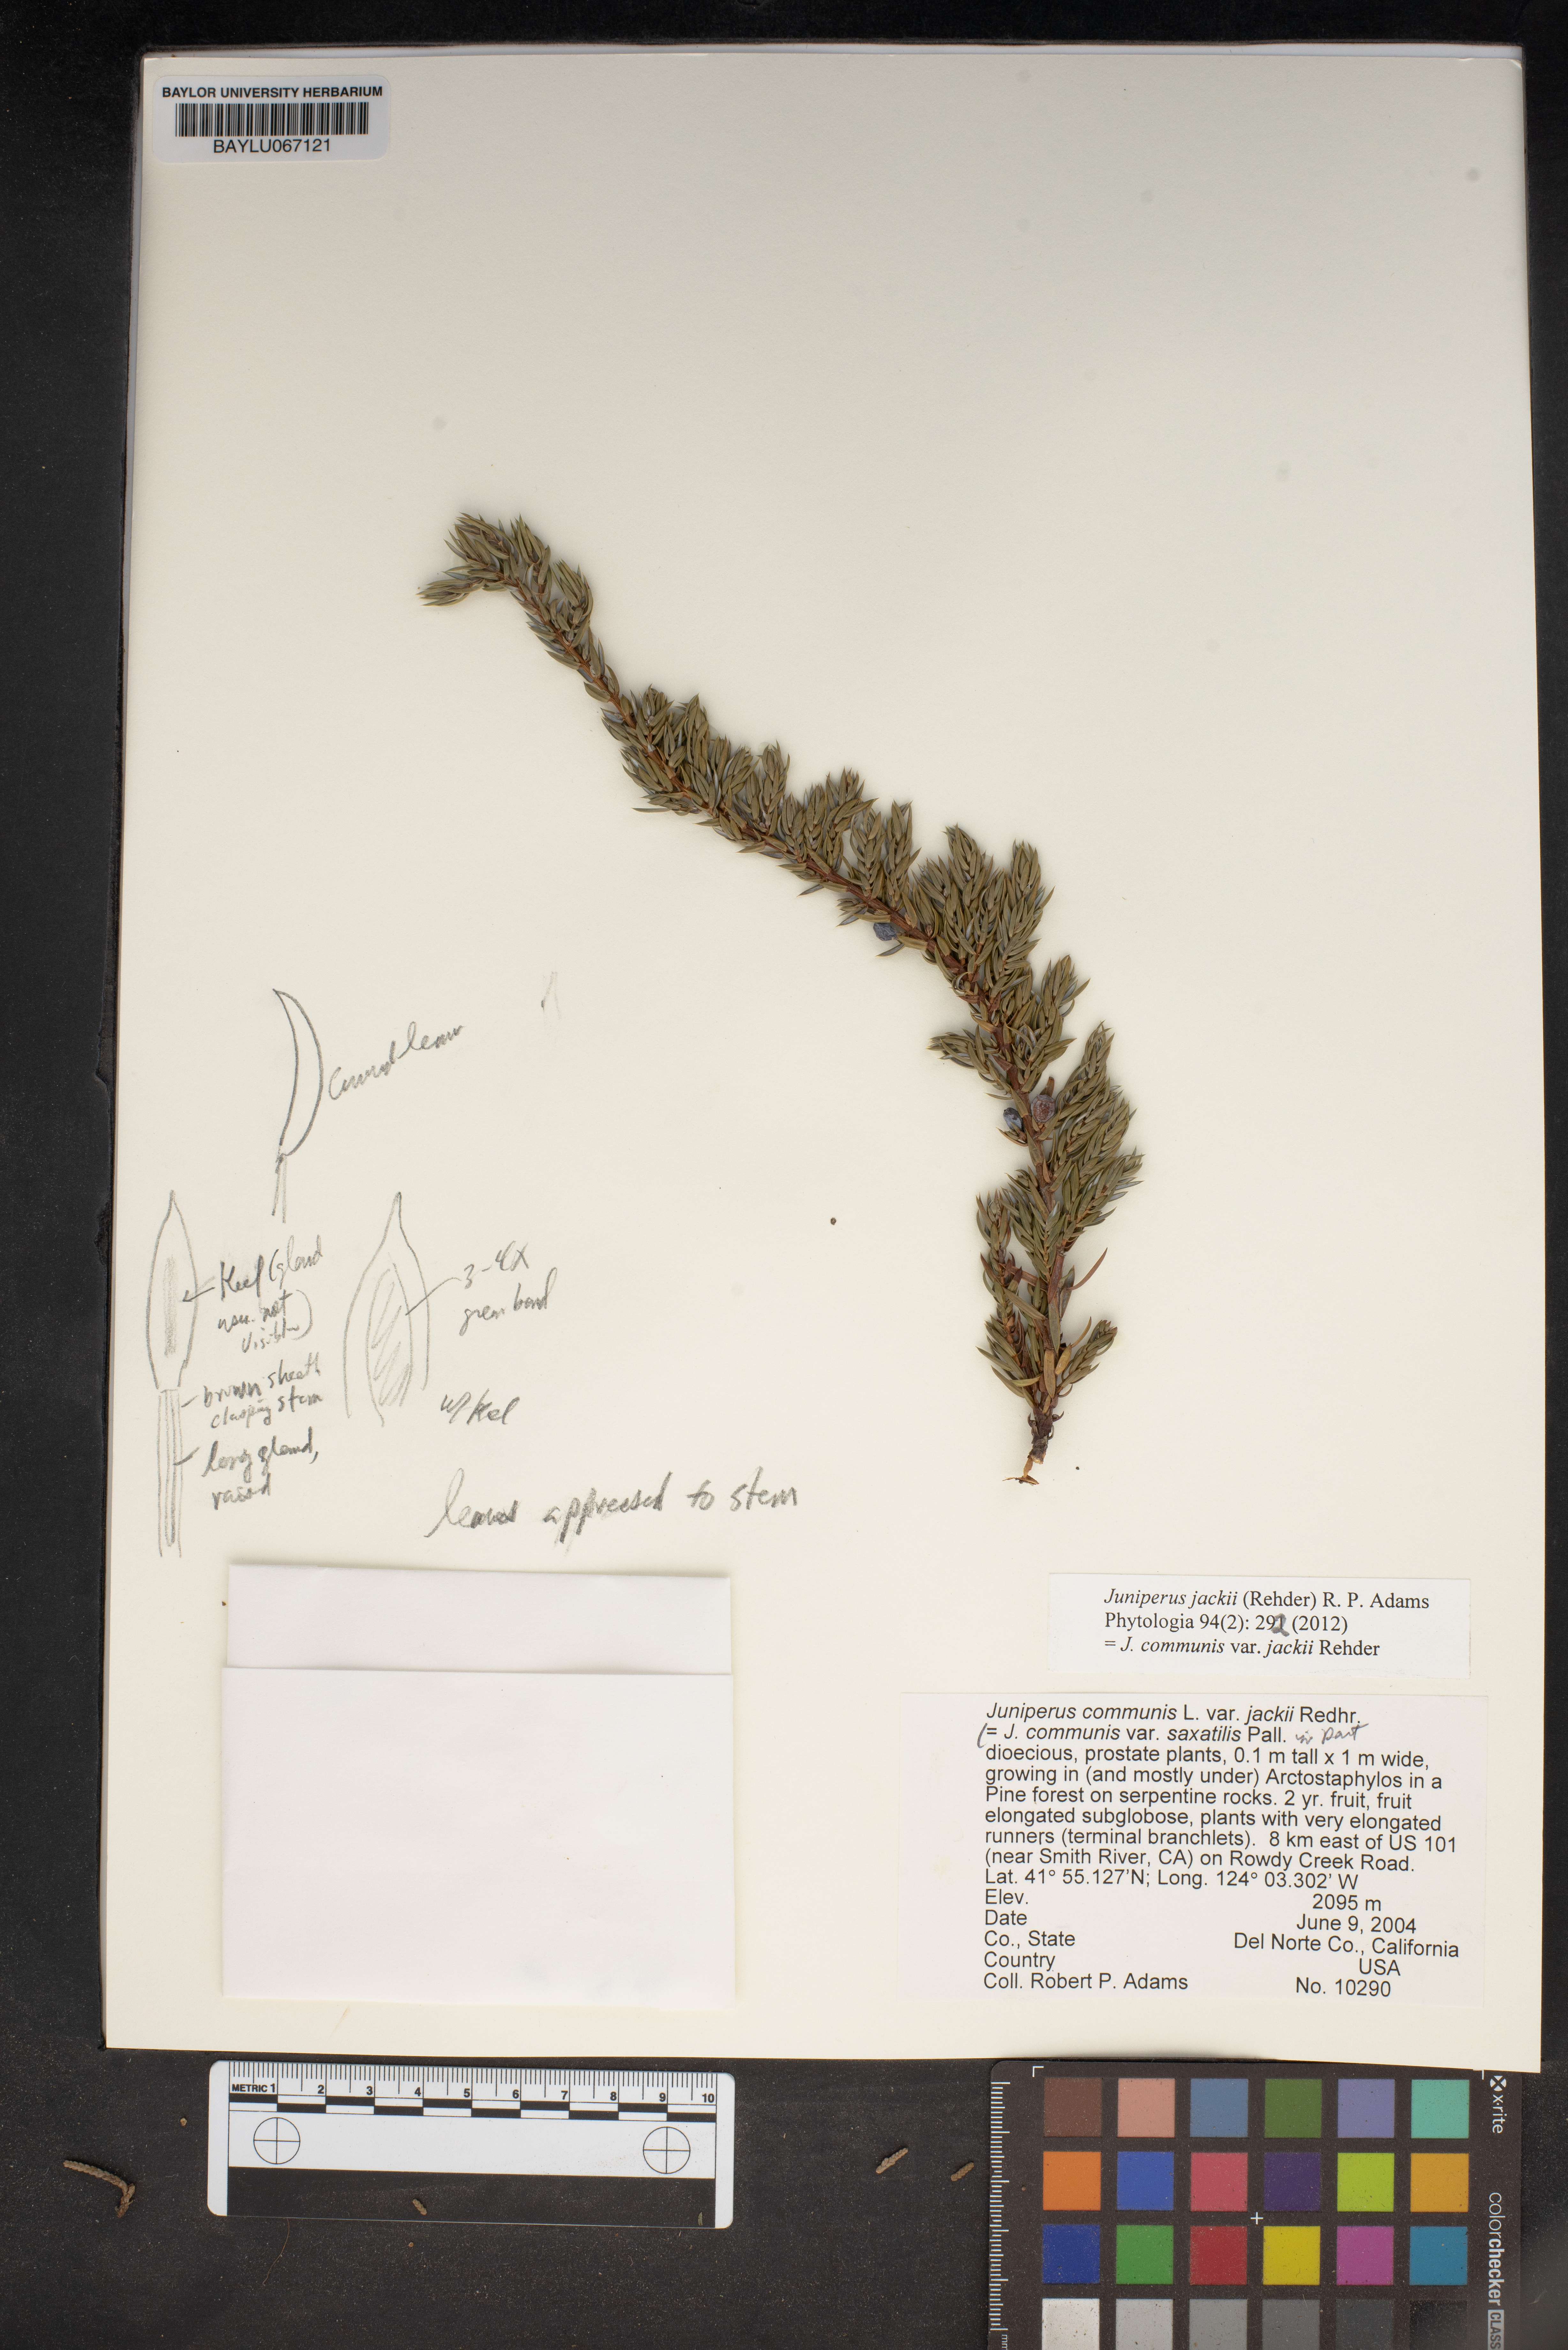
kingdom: Plantae
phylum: Tracheophyta
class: Pinopsida
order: Pinales
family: Cupressaceae
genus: Juniperus
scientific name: Juniperus communis
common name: Common juniper
